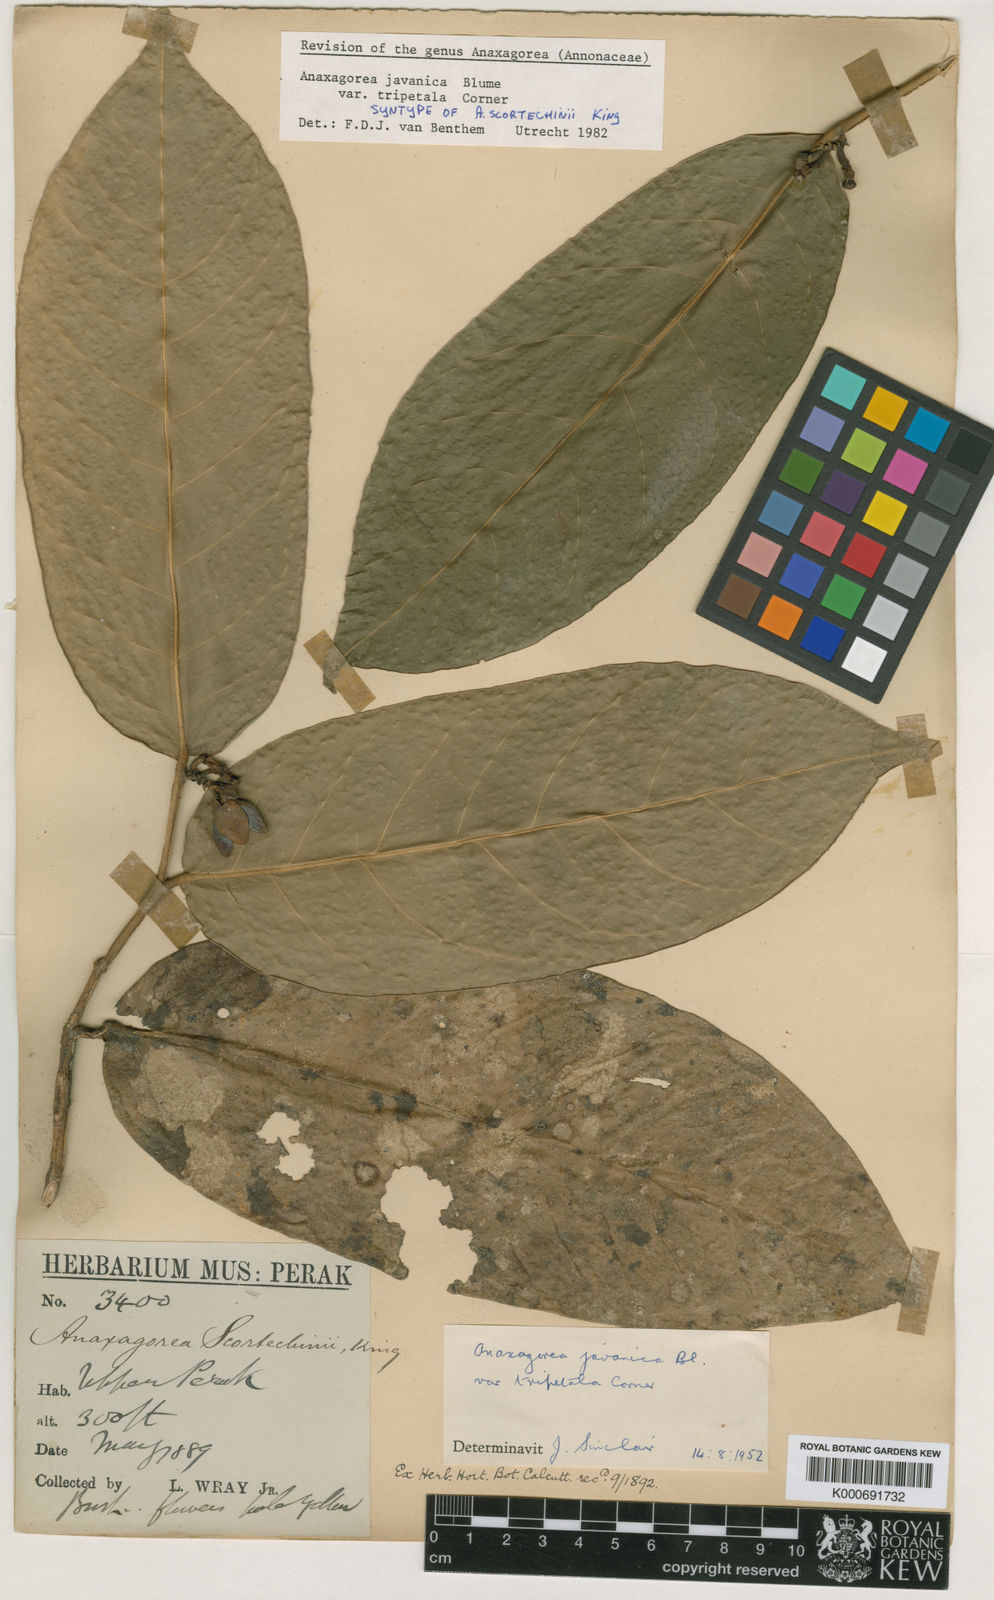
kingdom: Plantae
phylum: Tracheophyta
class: Magnoliopsida
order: Magnoliales
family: Annonaceae
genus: Anaxagorea
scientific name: Anaxagorea javanica
